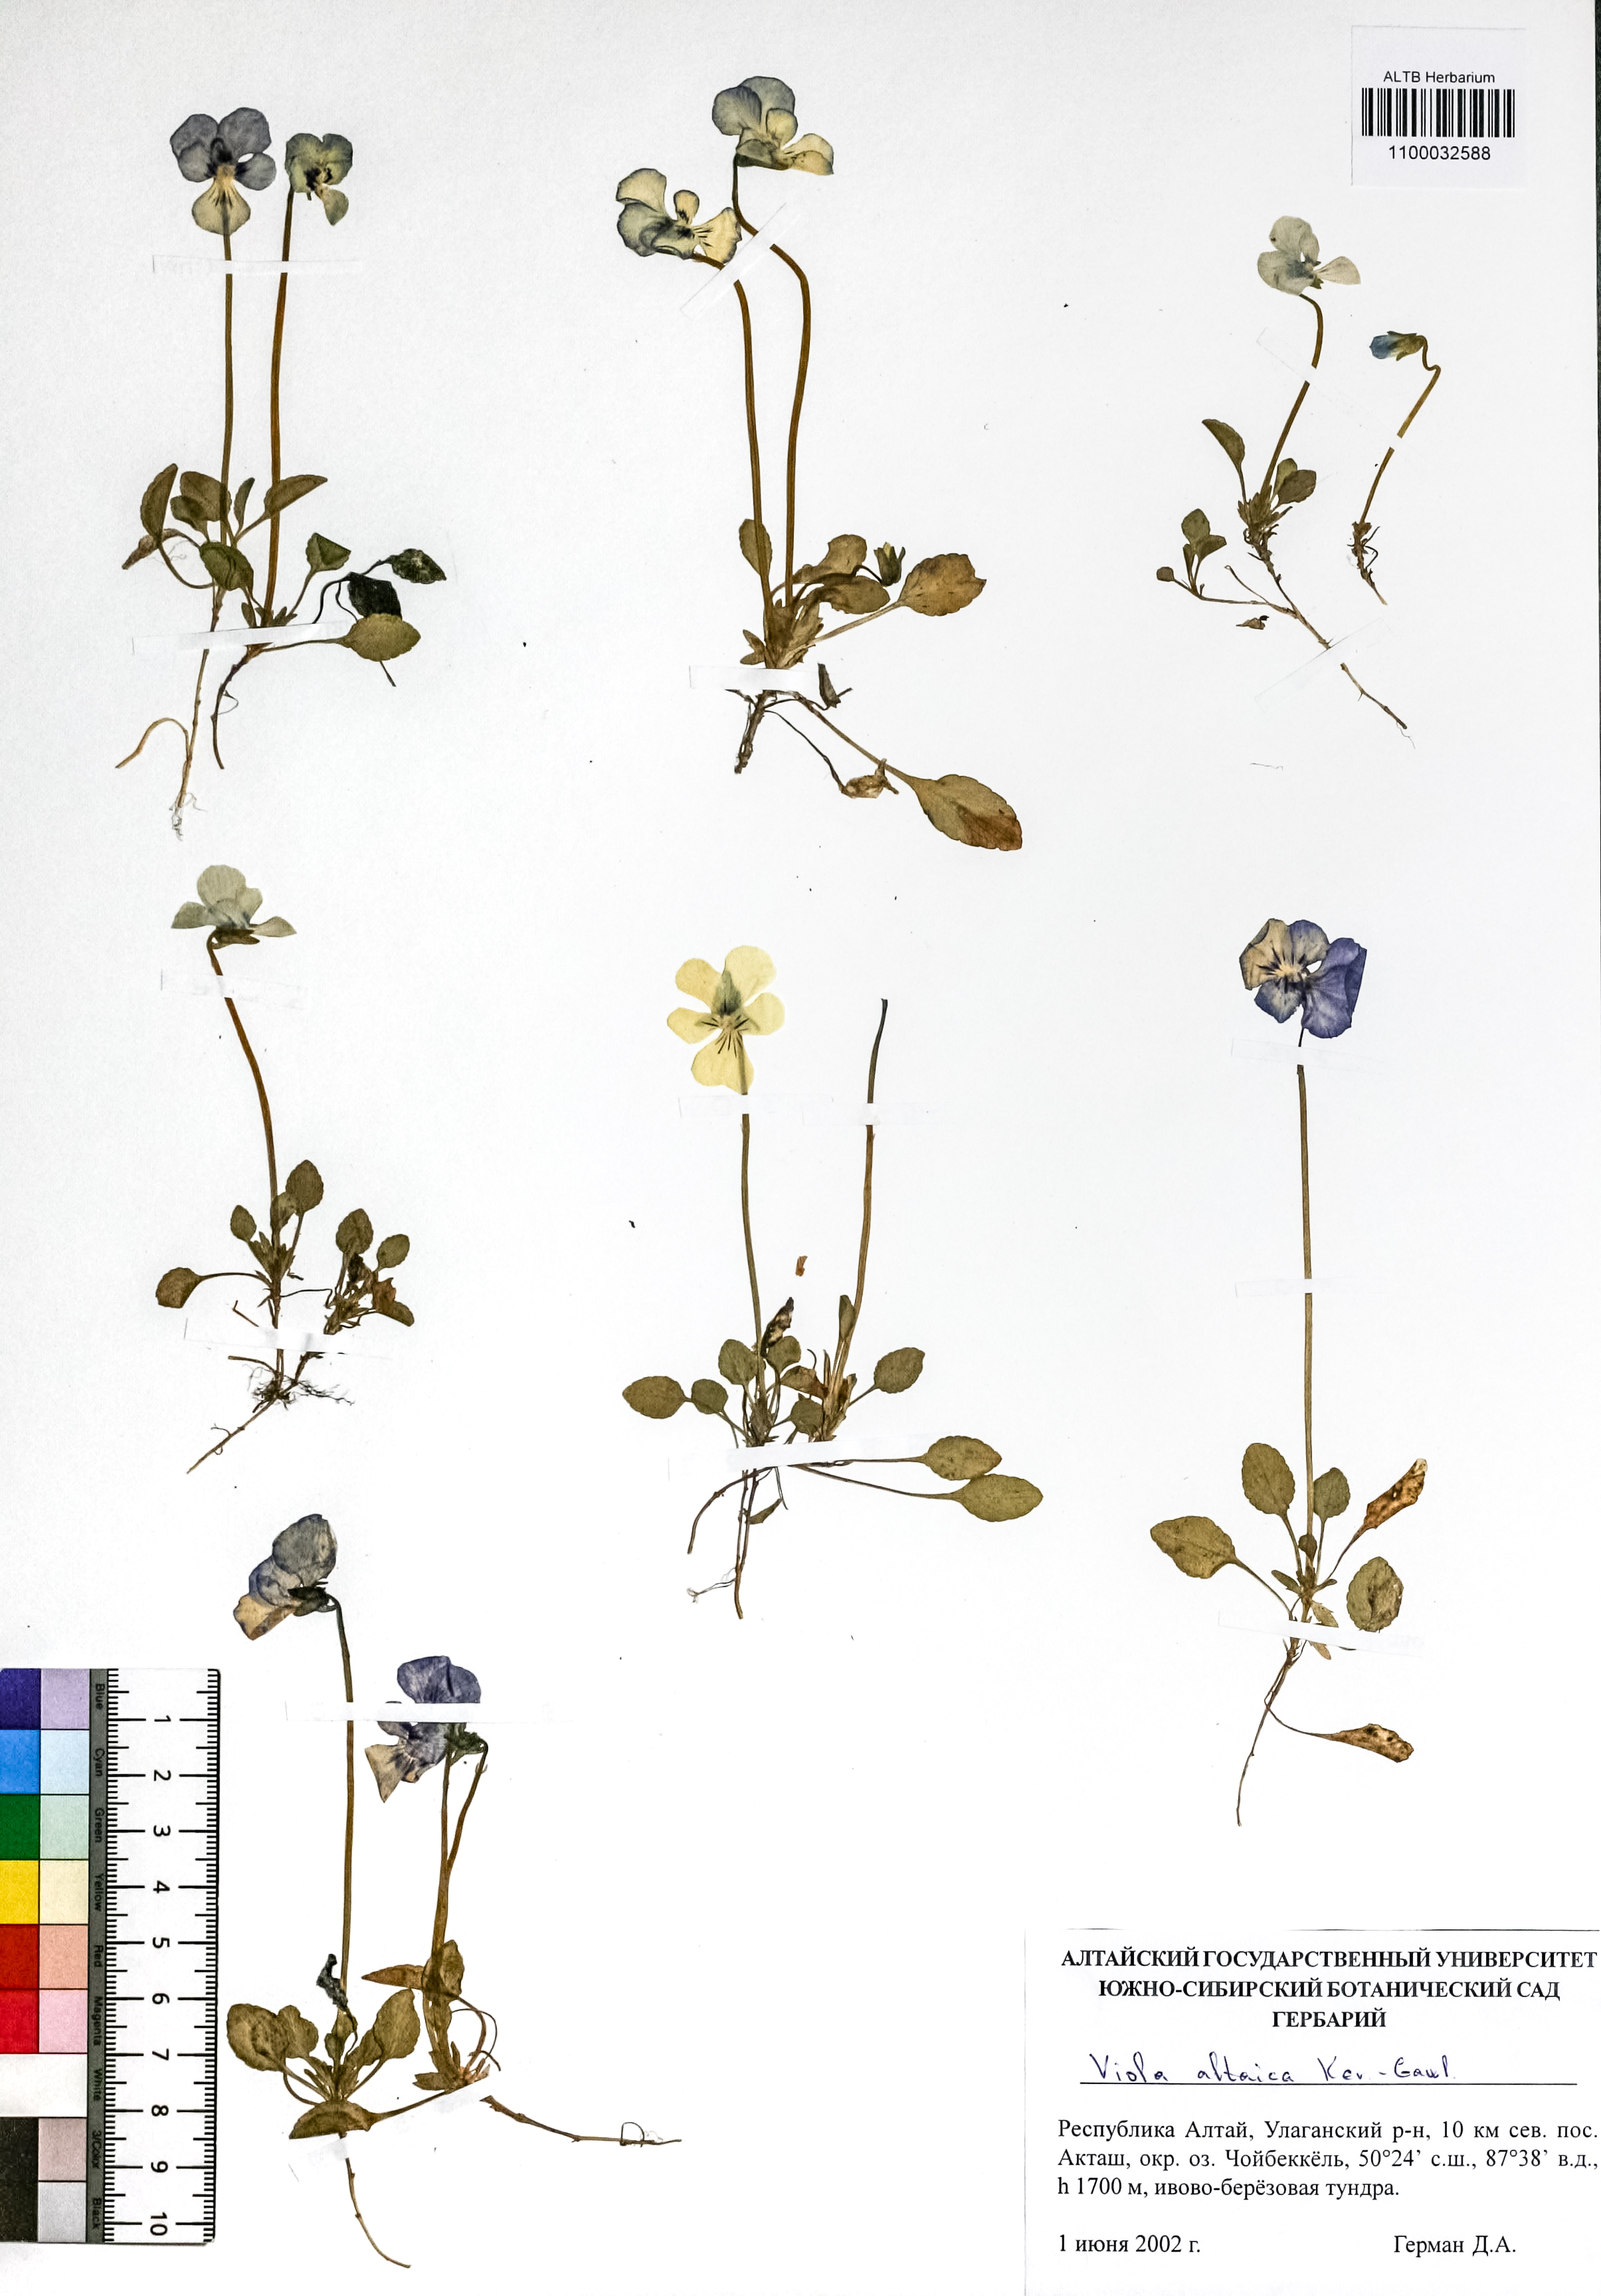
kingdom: Plantae
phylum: Tracheophyta
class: Magnoliopsida
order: Malpighiales
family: Violaceae
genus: Viola
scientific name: Viola altaica
